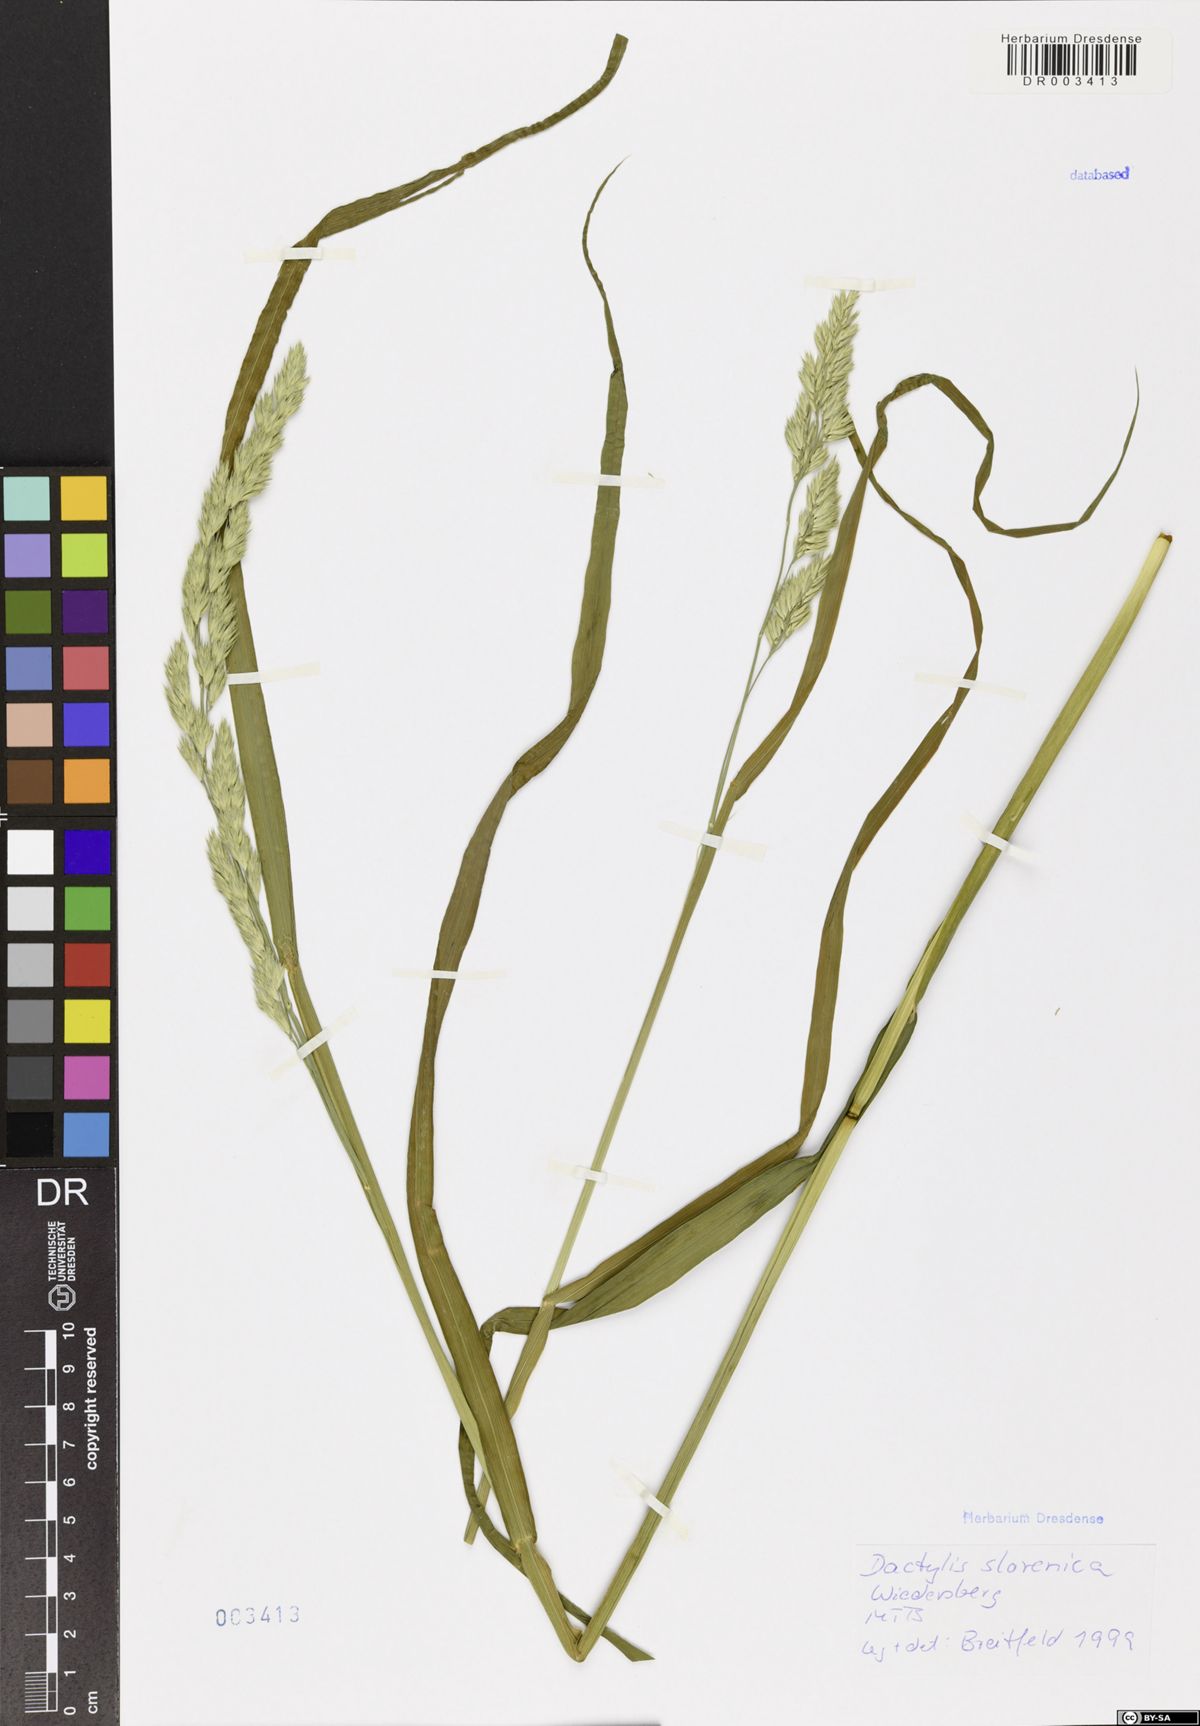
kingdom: Plantae
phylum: Tracheophyta
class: Liliopsida
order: Poales
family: Poaceae
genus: Dactylis
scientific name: Dactylis glomerata
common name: Orchardgrass
